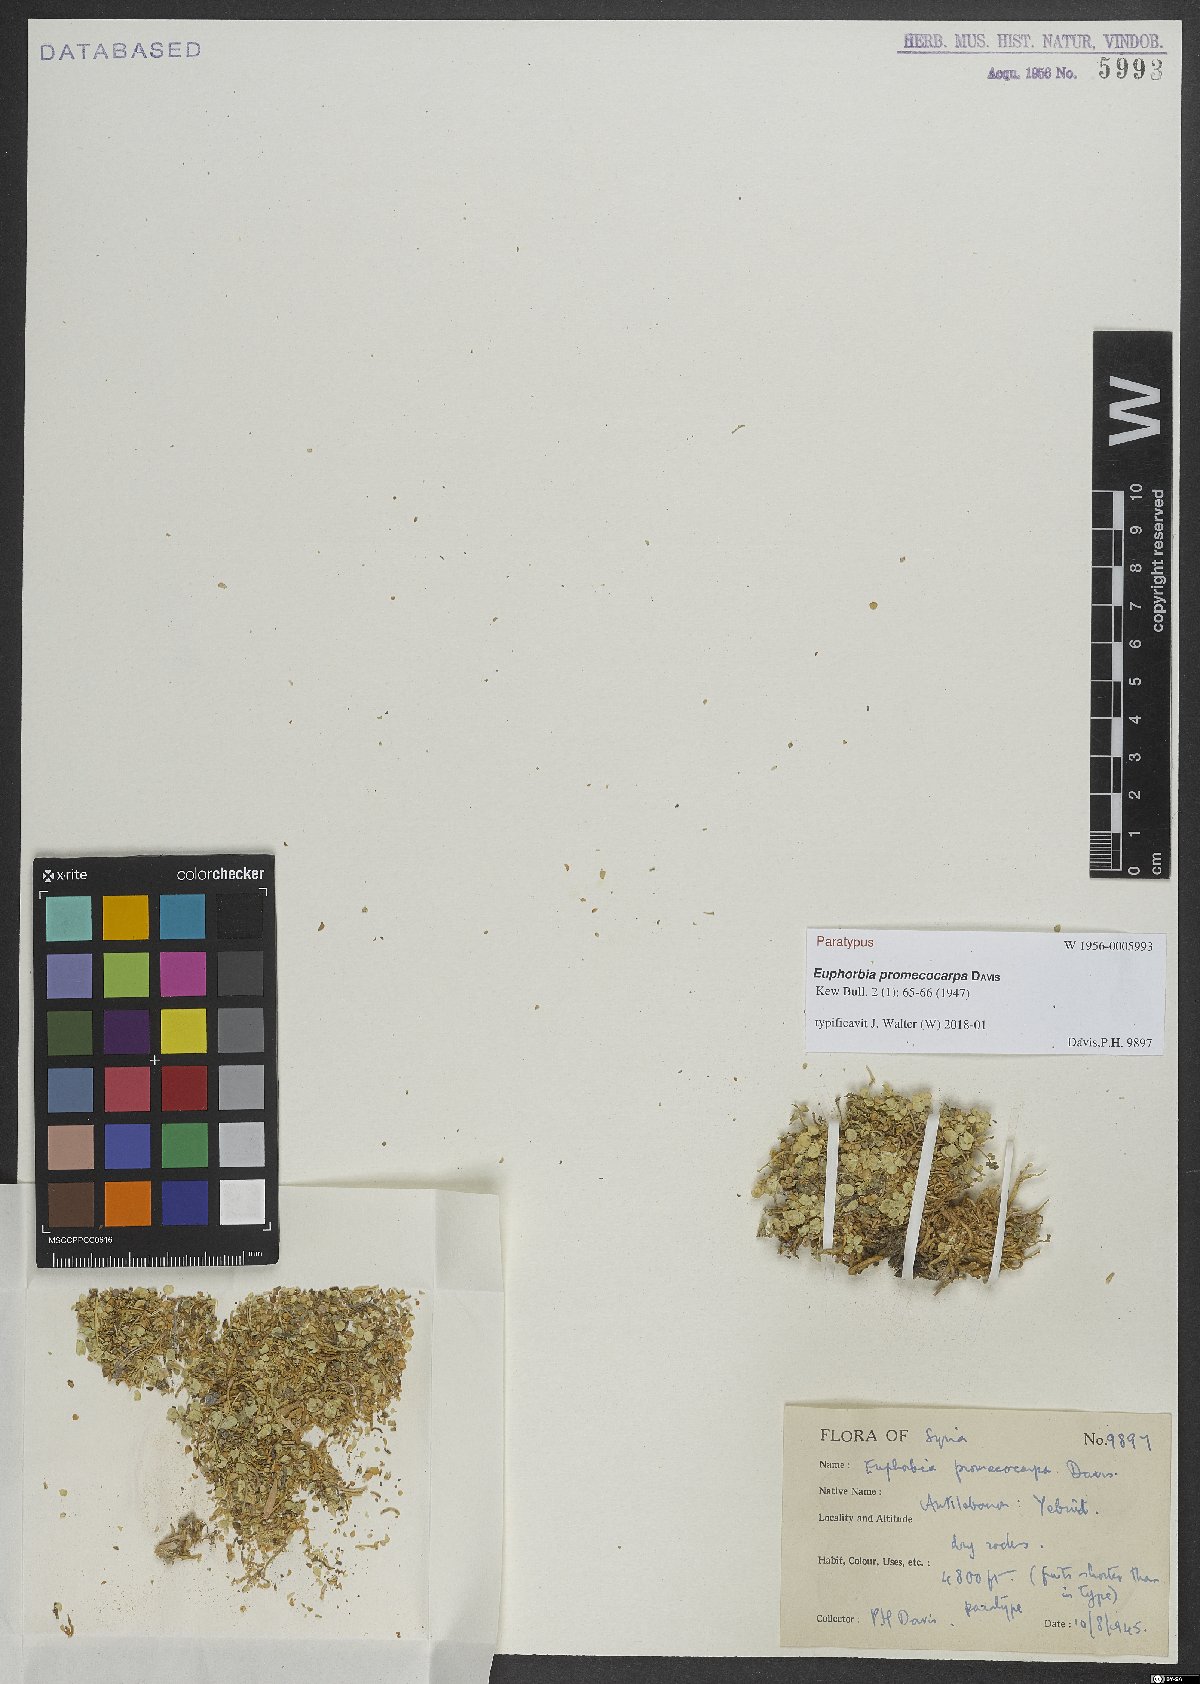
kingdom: Plantae
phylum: Tracheophyta
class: Magnoliopsida
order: Malpighiales
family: Euphorbiaceae
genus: Euphorbia
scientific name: Euphorbia promecocarpa
